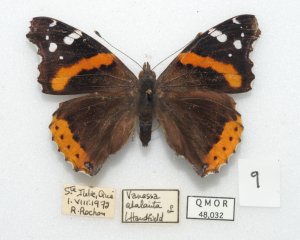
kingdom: Animalia
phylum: Arthropoda
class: Insecta
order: Lepidoptera
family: Nymphalidae
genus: Vanessa
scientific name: Vanessa atalanta
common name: Red Admiral
